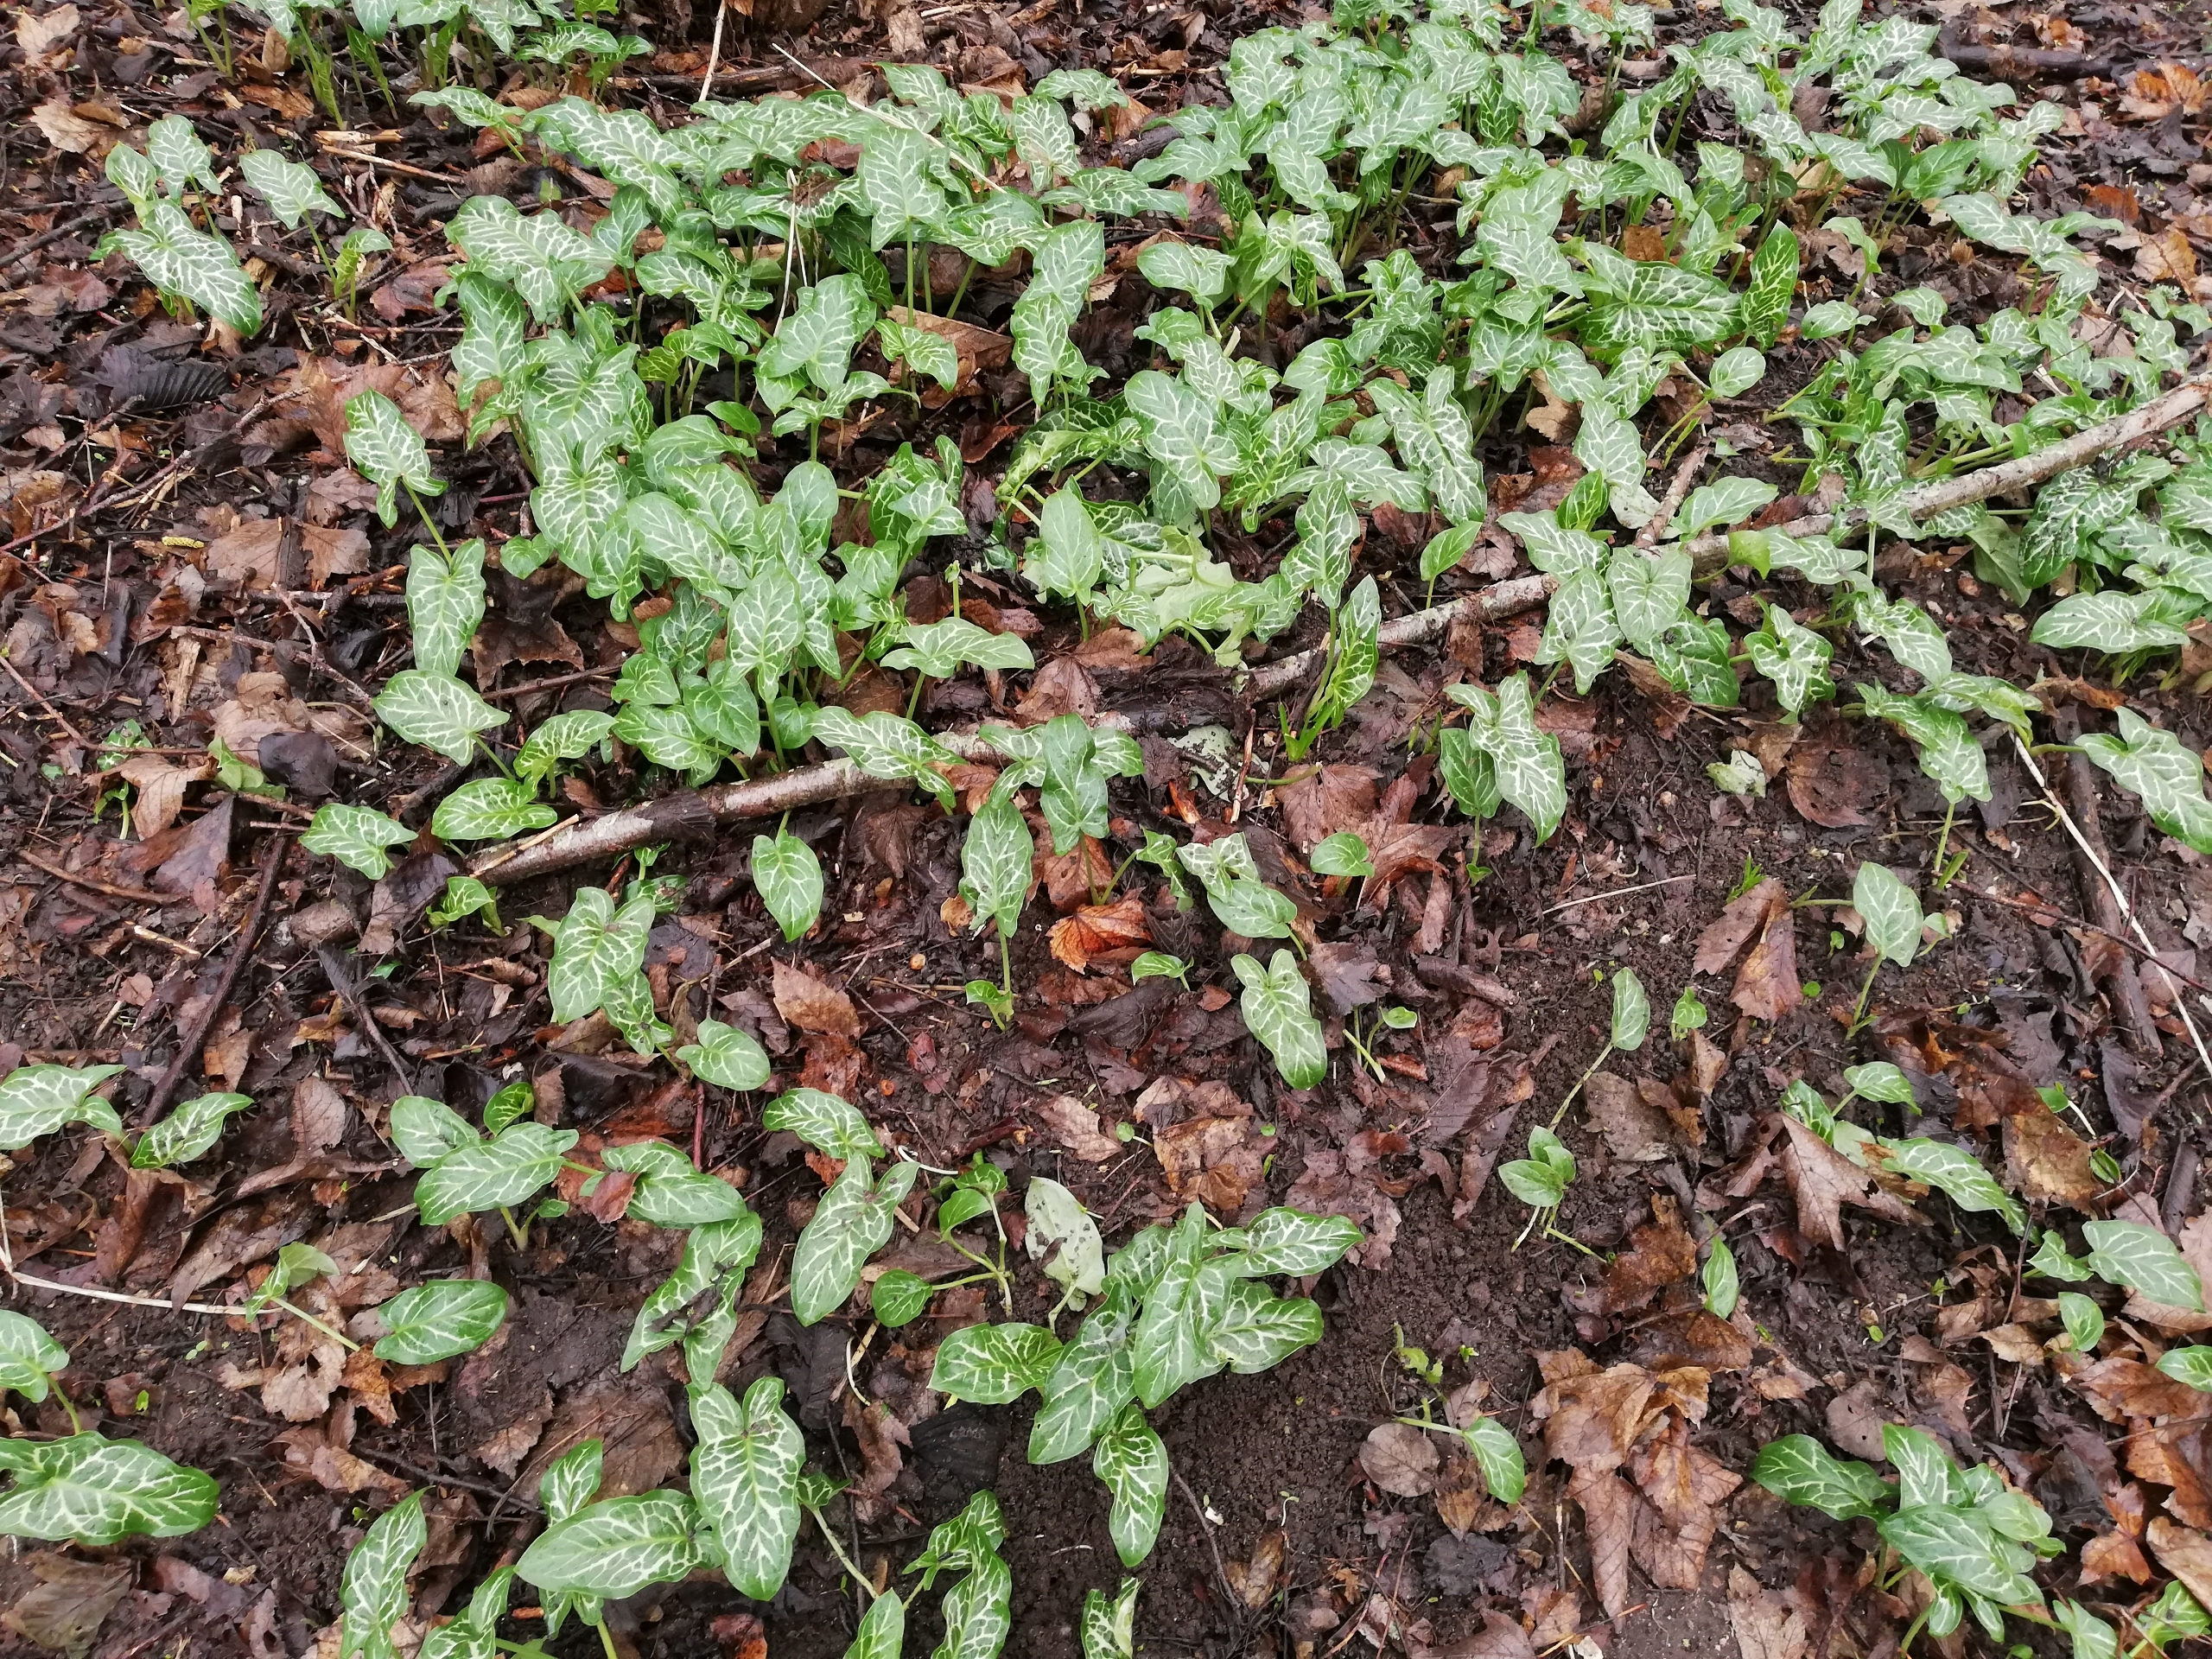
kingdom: Plantae
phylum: Tracheophyta
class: Liliopsida
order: Alismatales
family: Araceae
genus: Arum
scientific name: Arum italicum
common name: Italiensk arum
